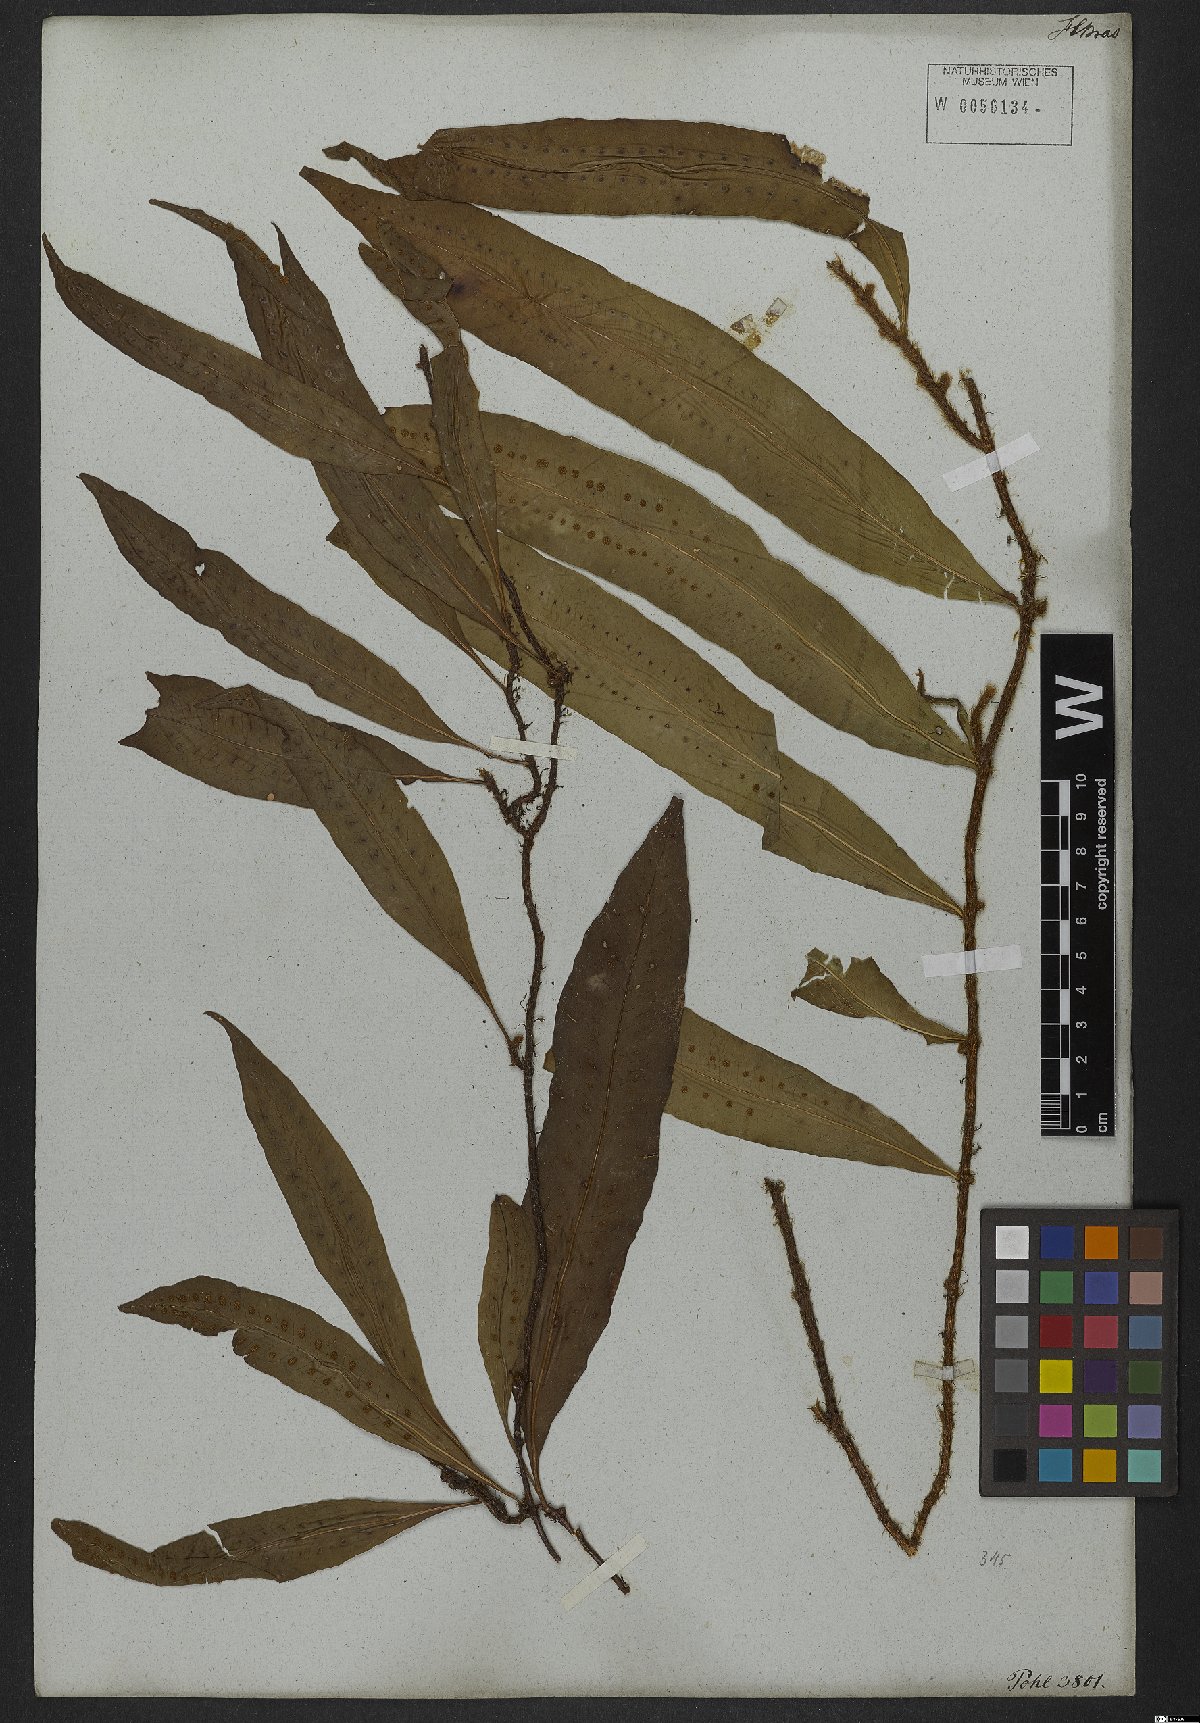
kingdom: Plantae
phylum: Tracheophyta
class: Polypodiopsida
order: Polypodiales
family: Polypodiaceae
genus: Microgramma
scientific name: Microgramma persicariifolia
